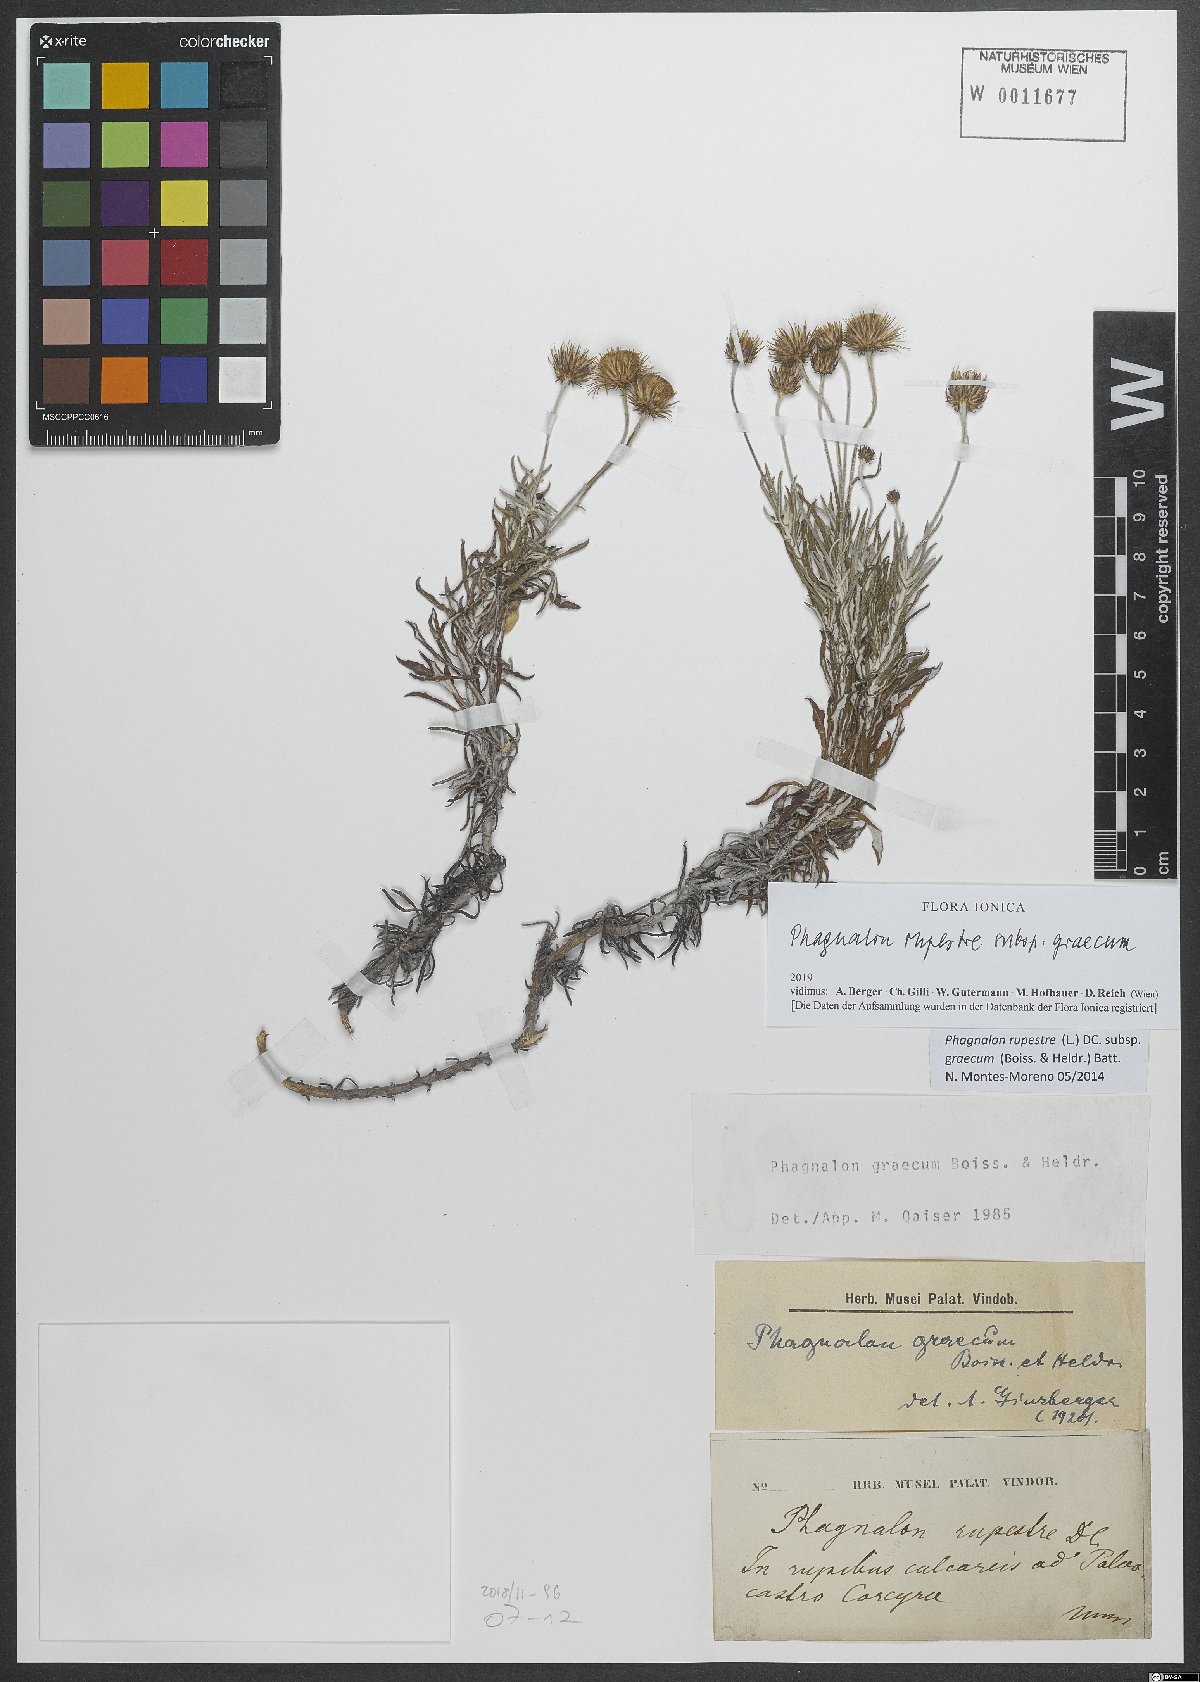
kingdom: Plantae
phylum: Tracheophyta
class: Magnoliopsida
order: Asterales
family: Asteraceae
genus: Phagnalon
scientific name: Phagnalon graecum
